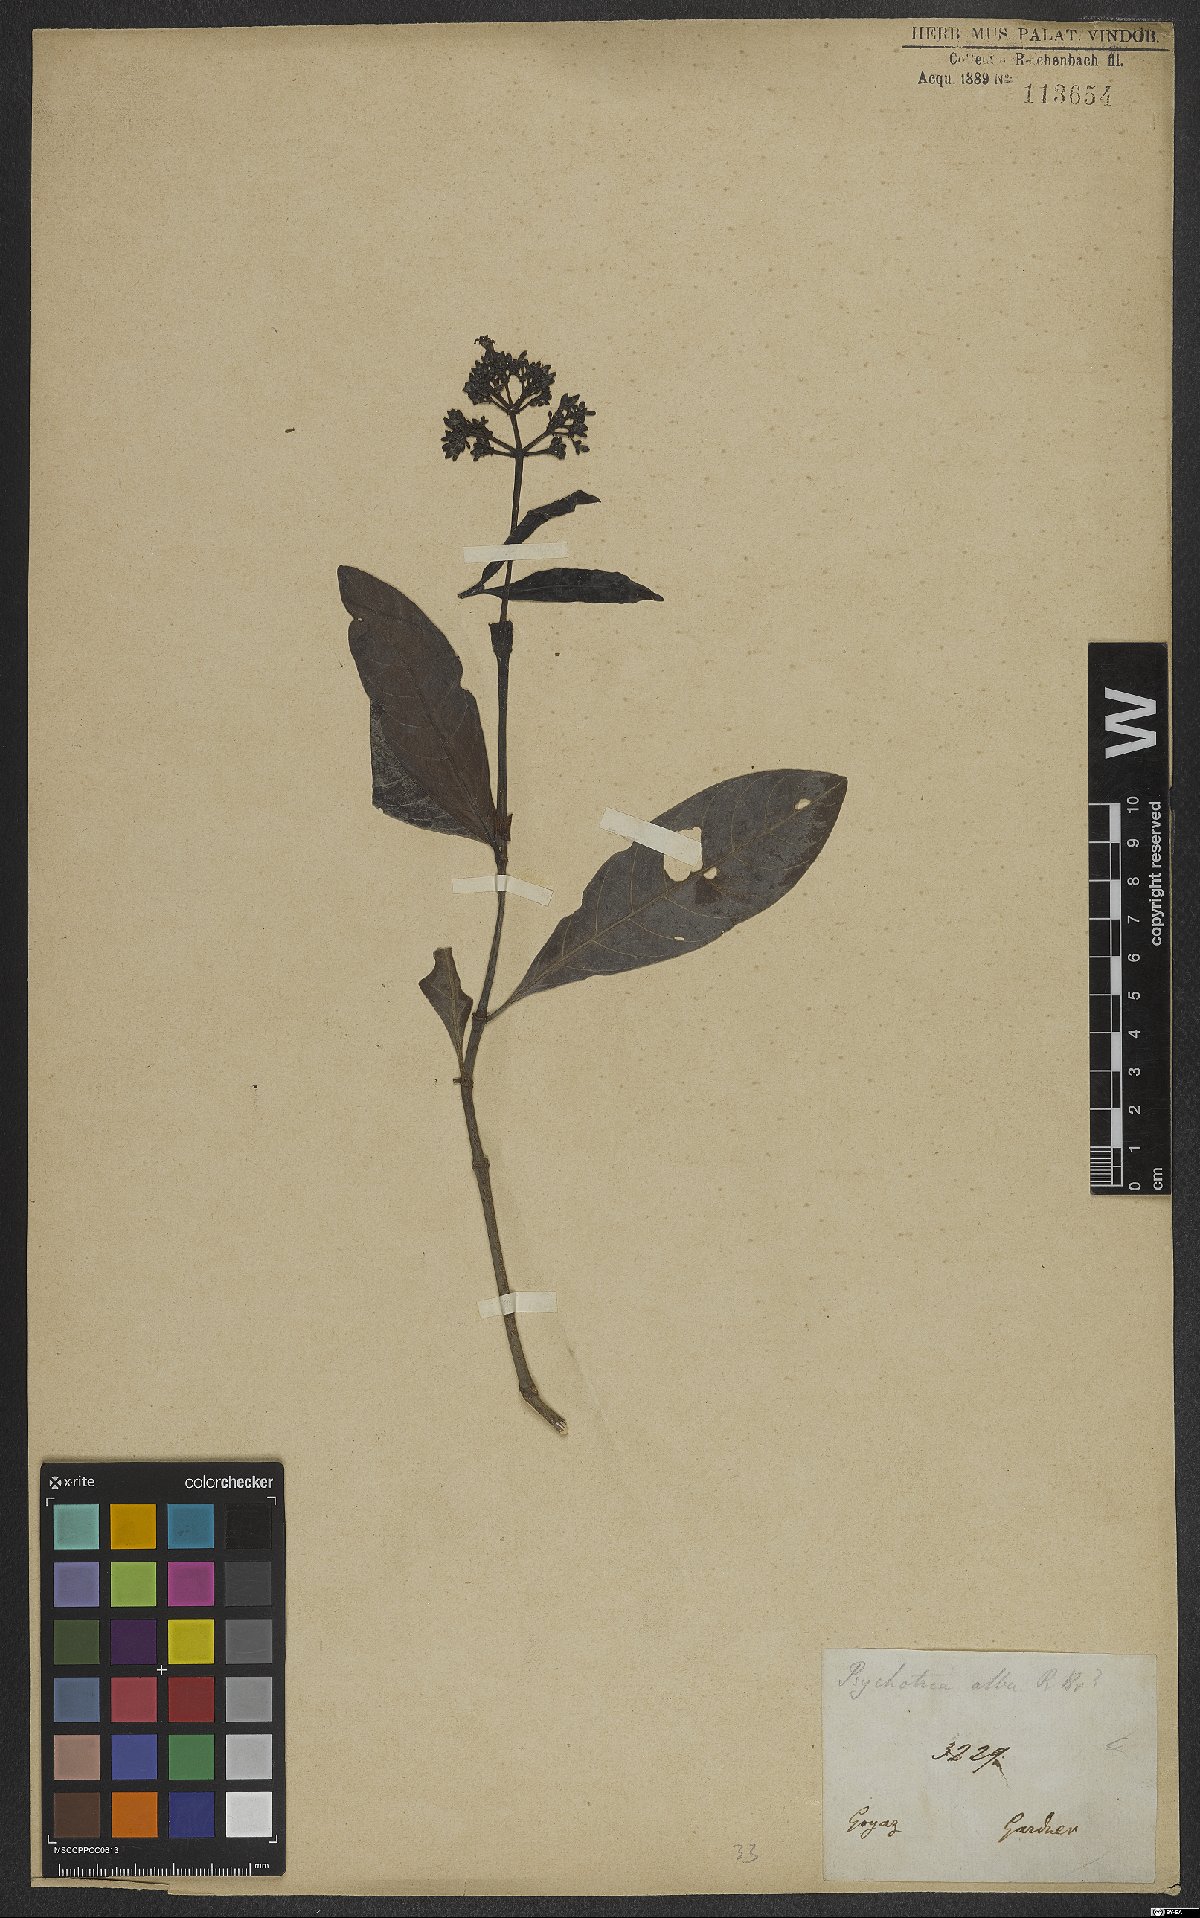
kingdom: Plantae
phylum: Tracheophyta
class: Magnoliopsida
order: Gentianales
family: Rubiaceae
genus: Psychotria
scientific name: Psychotria alba
